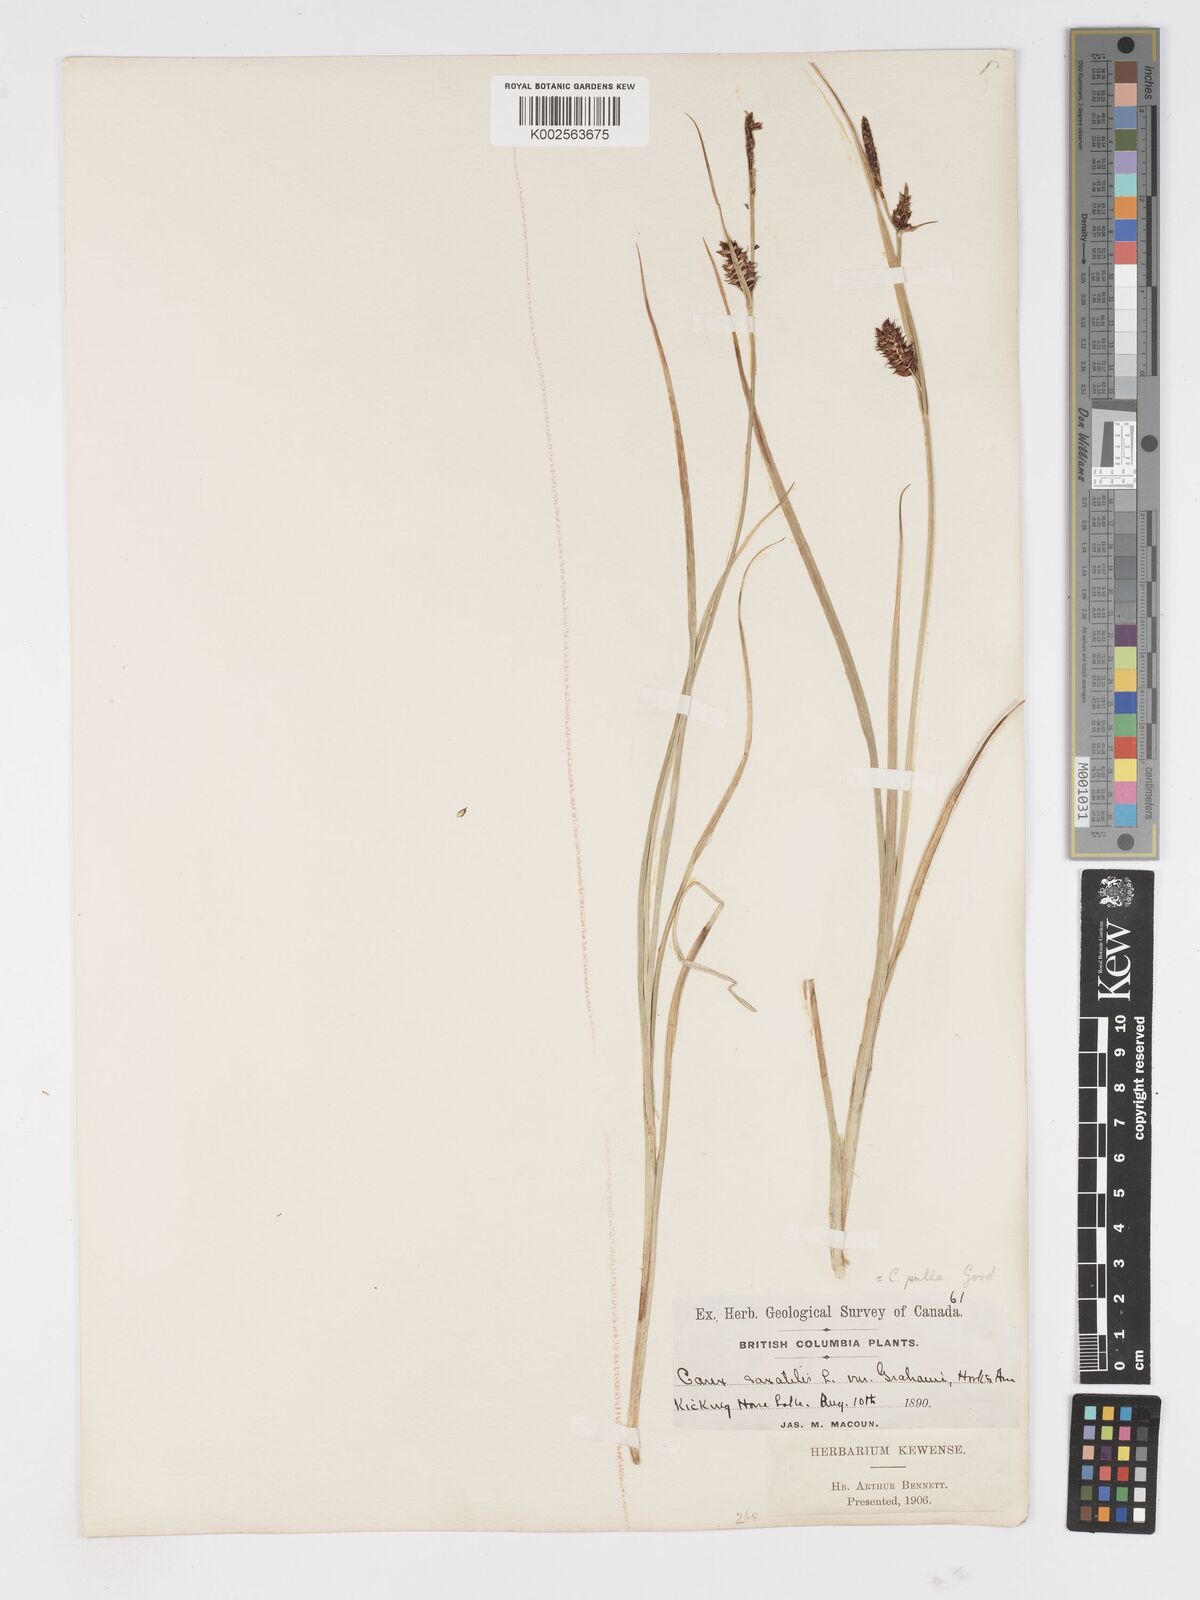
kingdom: Plantae
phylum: Tracheophyta
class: Liliopsida
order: Poales
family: Cyperaceae
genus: Carex
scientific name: Carex saxatilis
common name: Russet sedge
